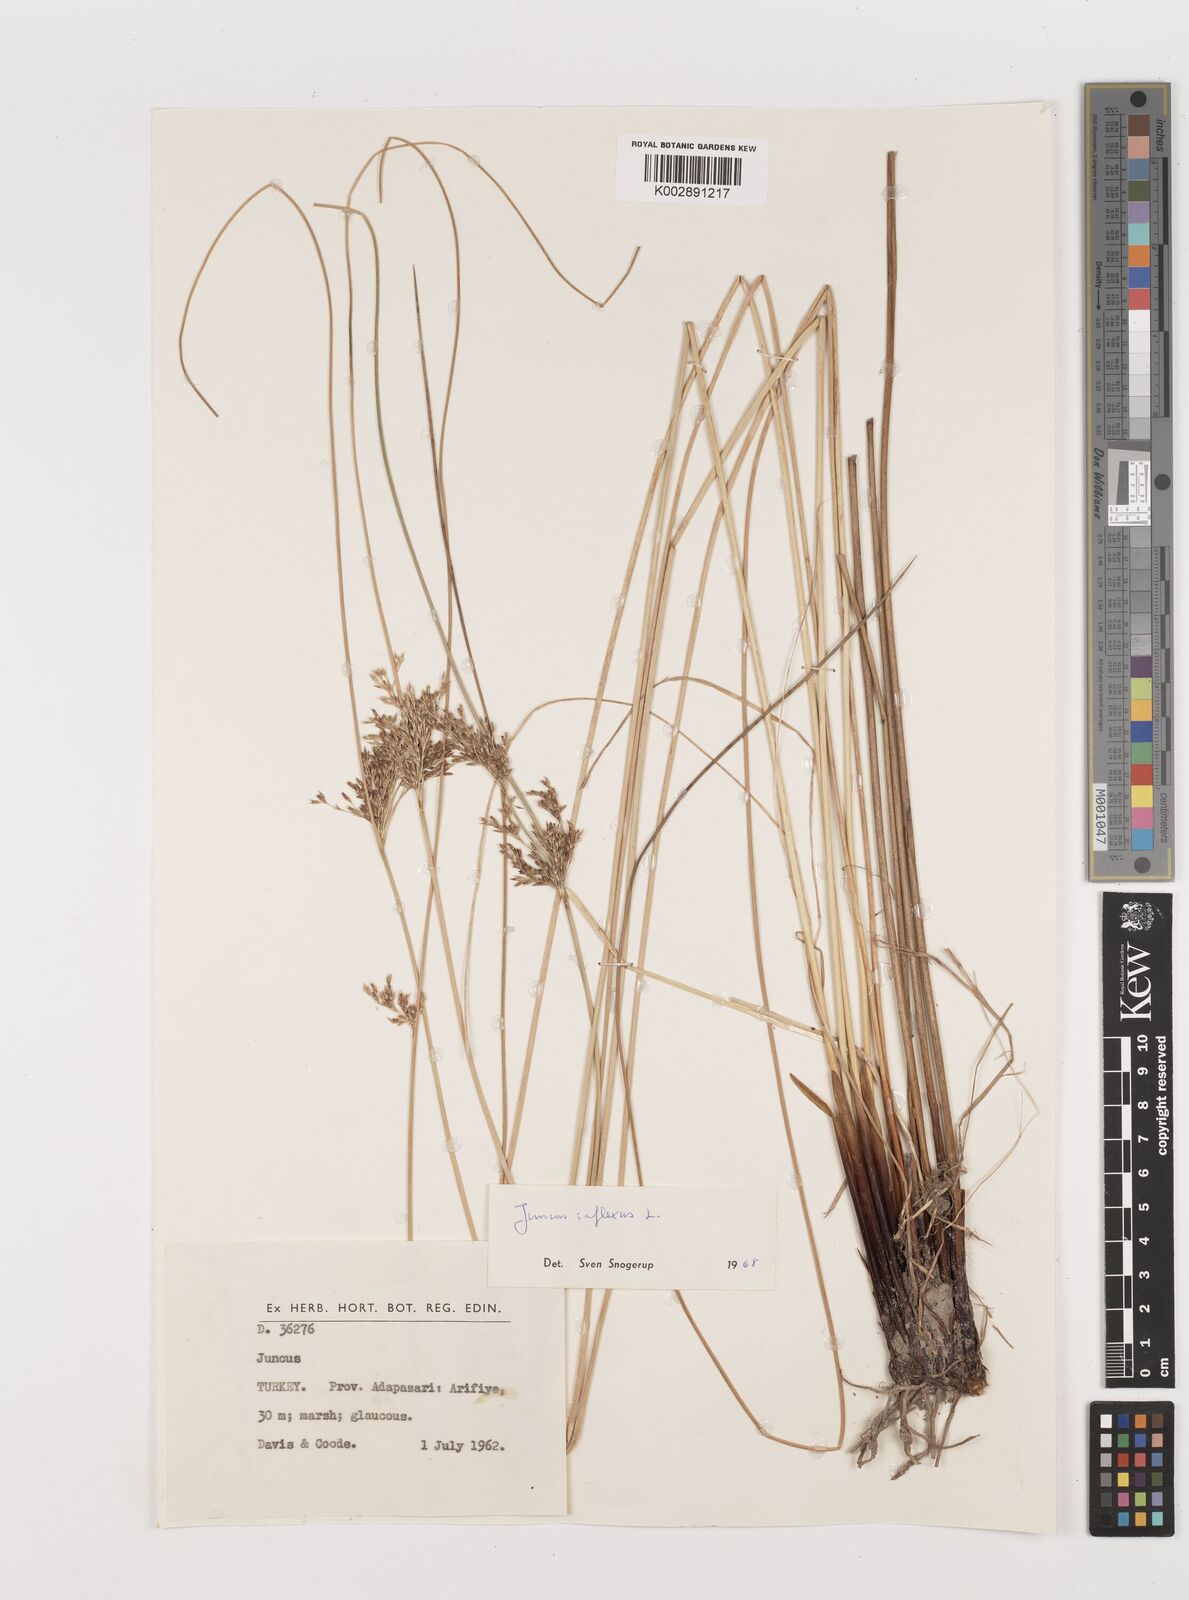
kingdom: Plantae
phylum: Tracheophyta
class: Liliopsida
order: Poales
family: Juncaceae
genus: Juncus
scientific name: Juncus inflexus
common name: Hard rush
